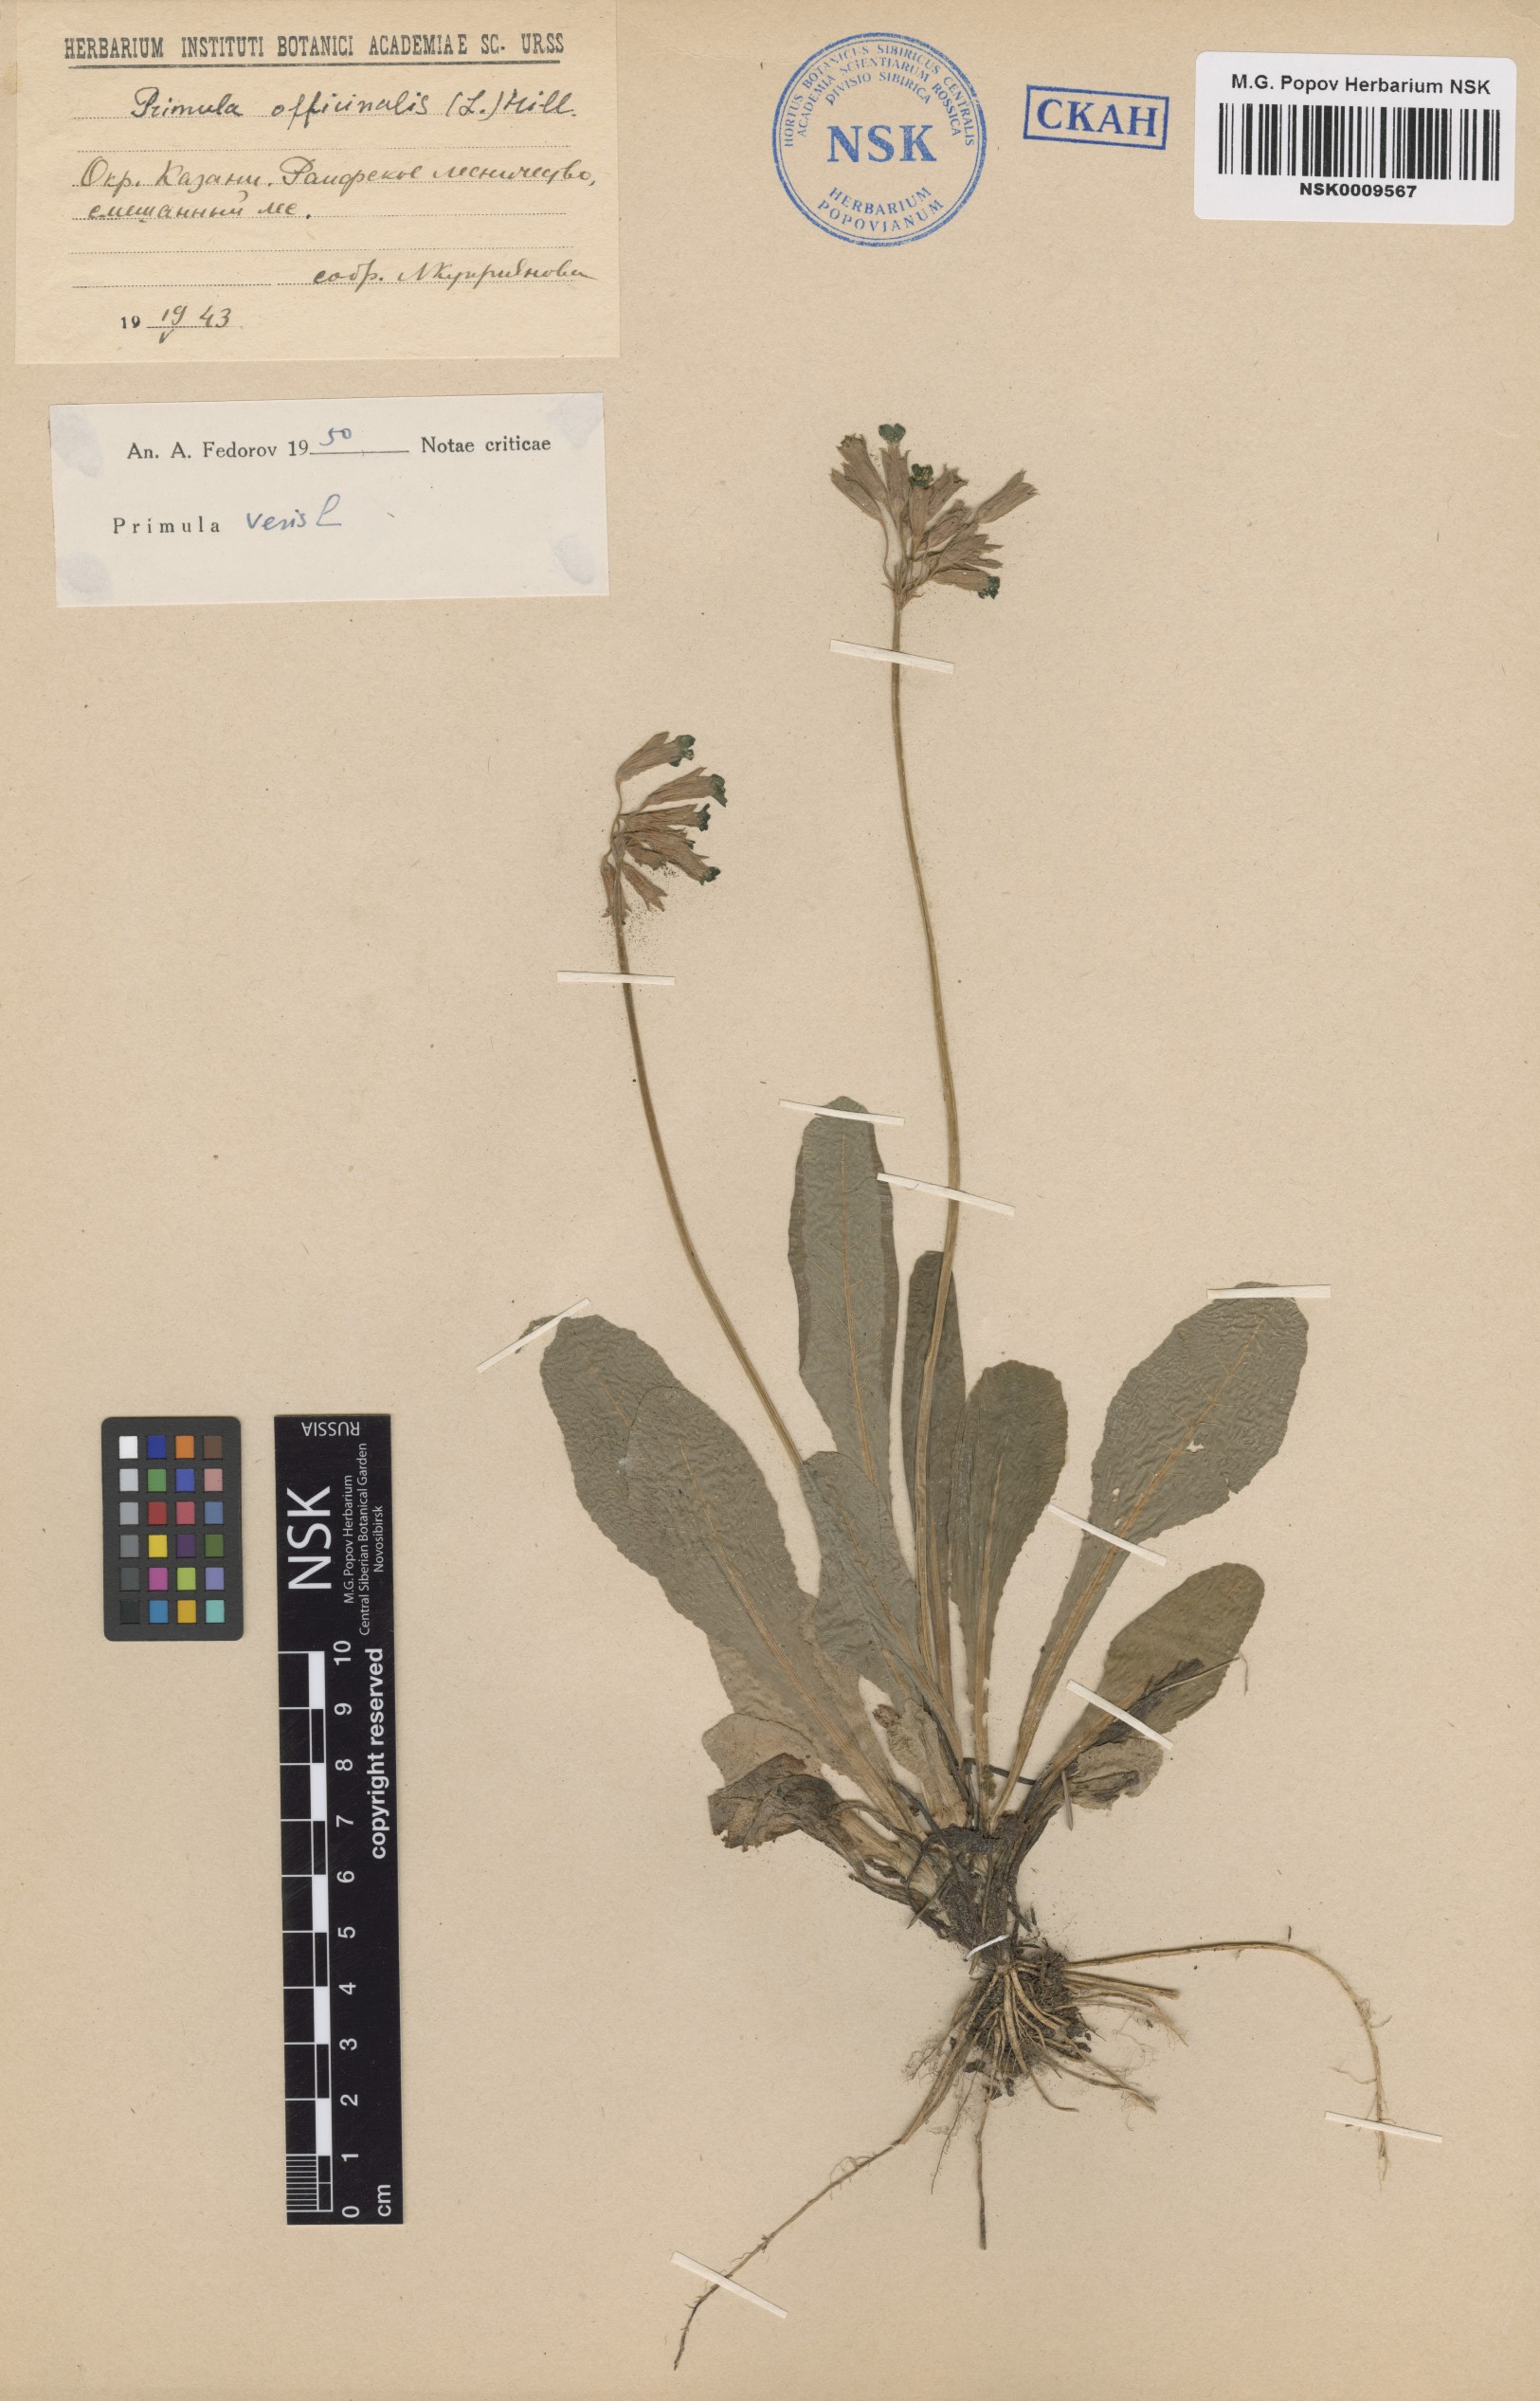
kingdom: Plantae
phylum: Tracheophyta
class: Magnoliopsida
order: Ericales
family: Primulaceae
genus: Primula
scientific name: Primula veris
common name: Cowslip
